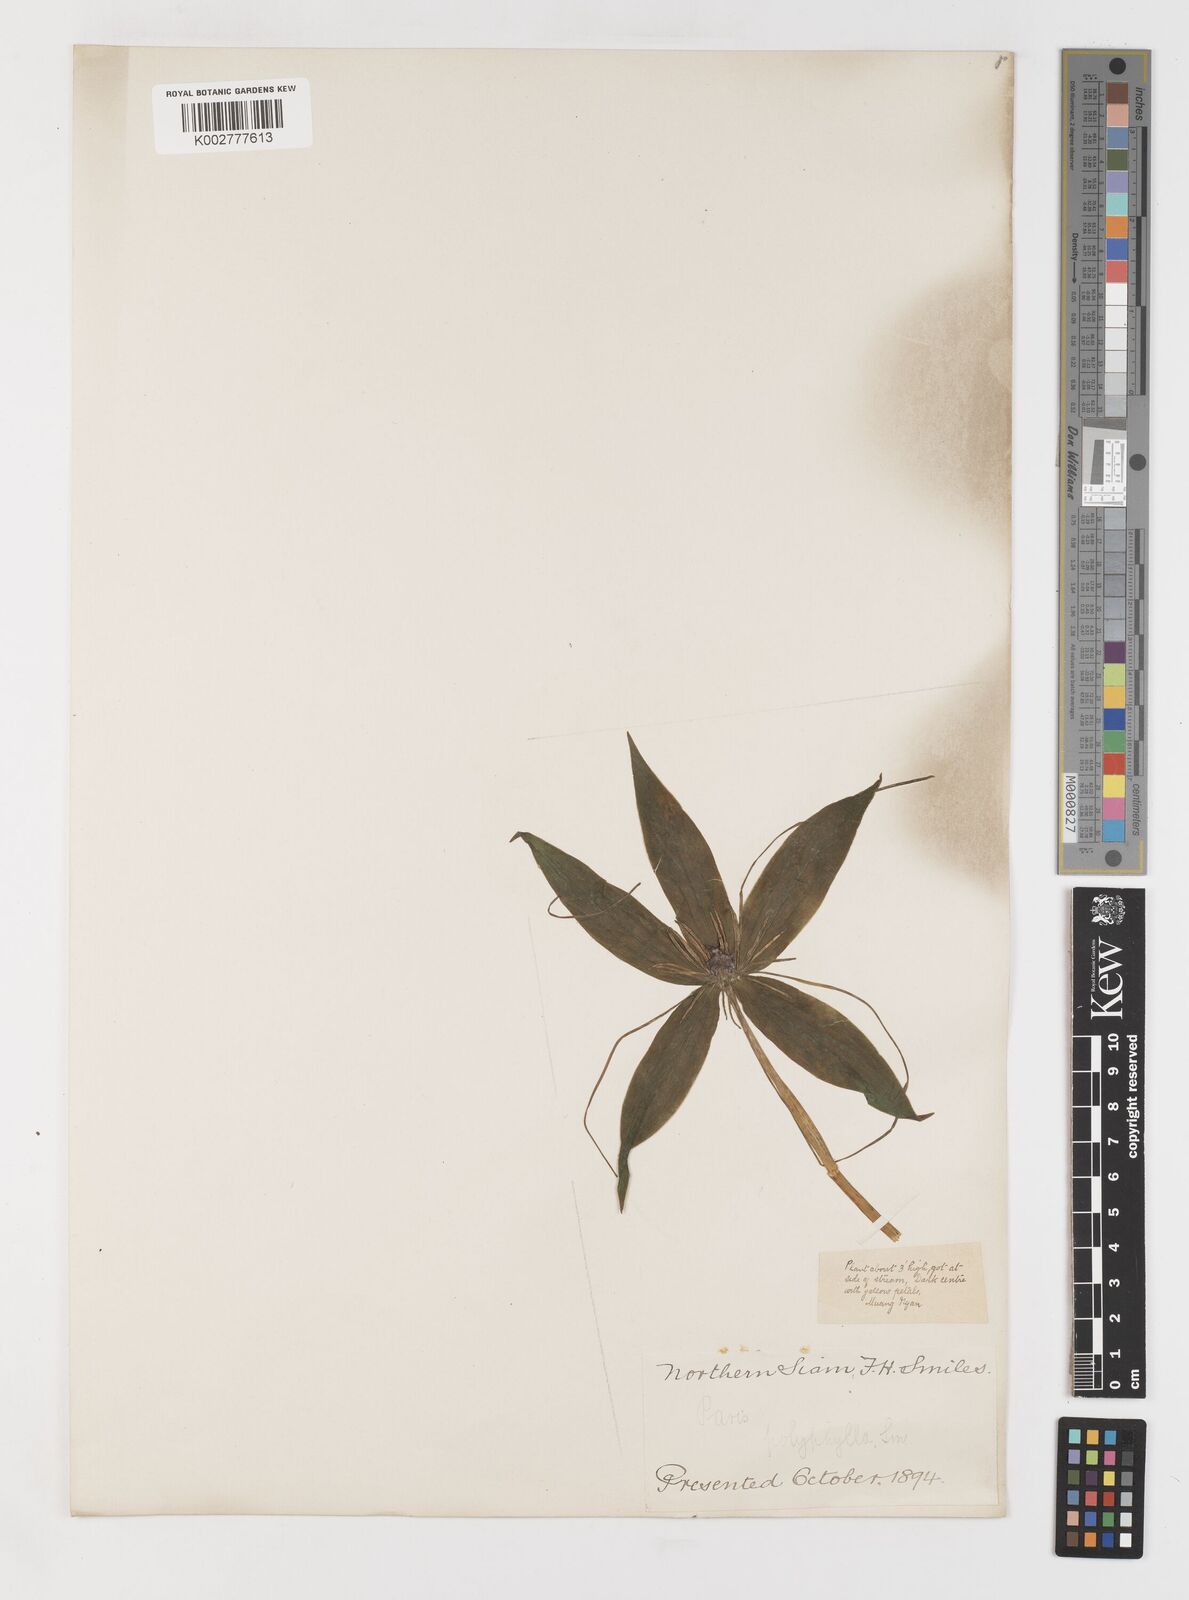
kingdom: Plantae
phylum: Tracheophyta
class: Liliopsida
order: Liliales
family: Melanthiaceae
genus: Paris
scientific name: Paris polyphylla
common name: Love apple
